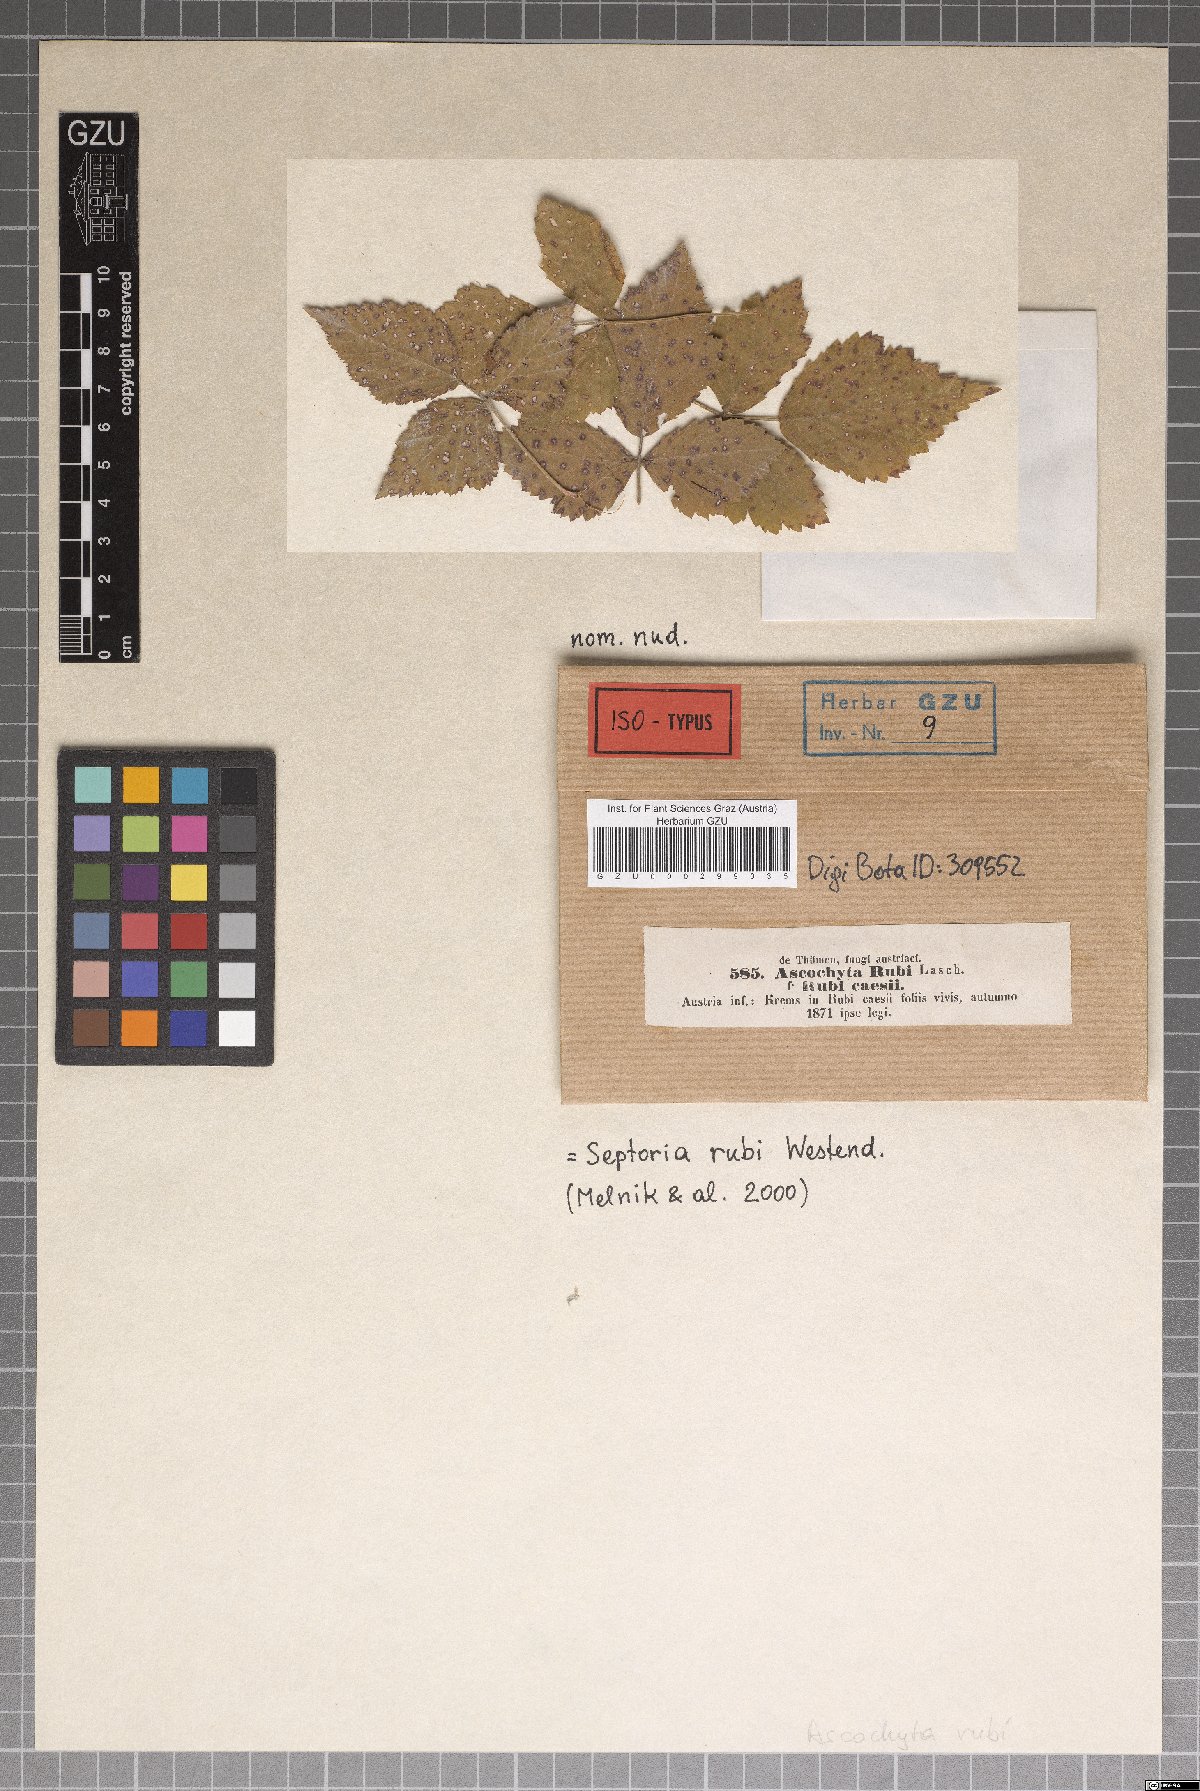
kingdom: Fungi
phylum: Ascomycota
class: Dothideomycetes
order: Pleosporales
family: Didymellaceae
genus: Ascochyta
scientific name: Ascochyta rubi
